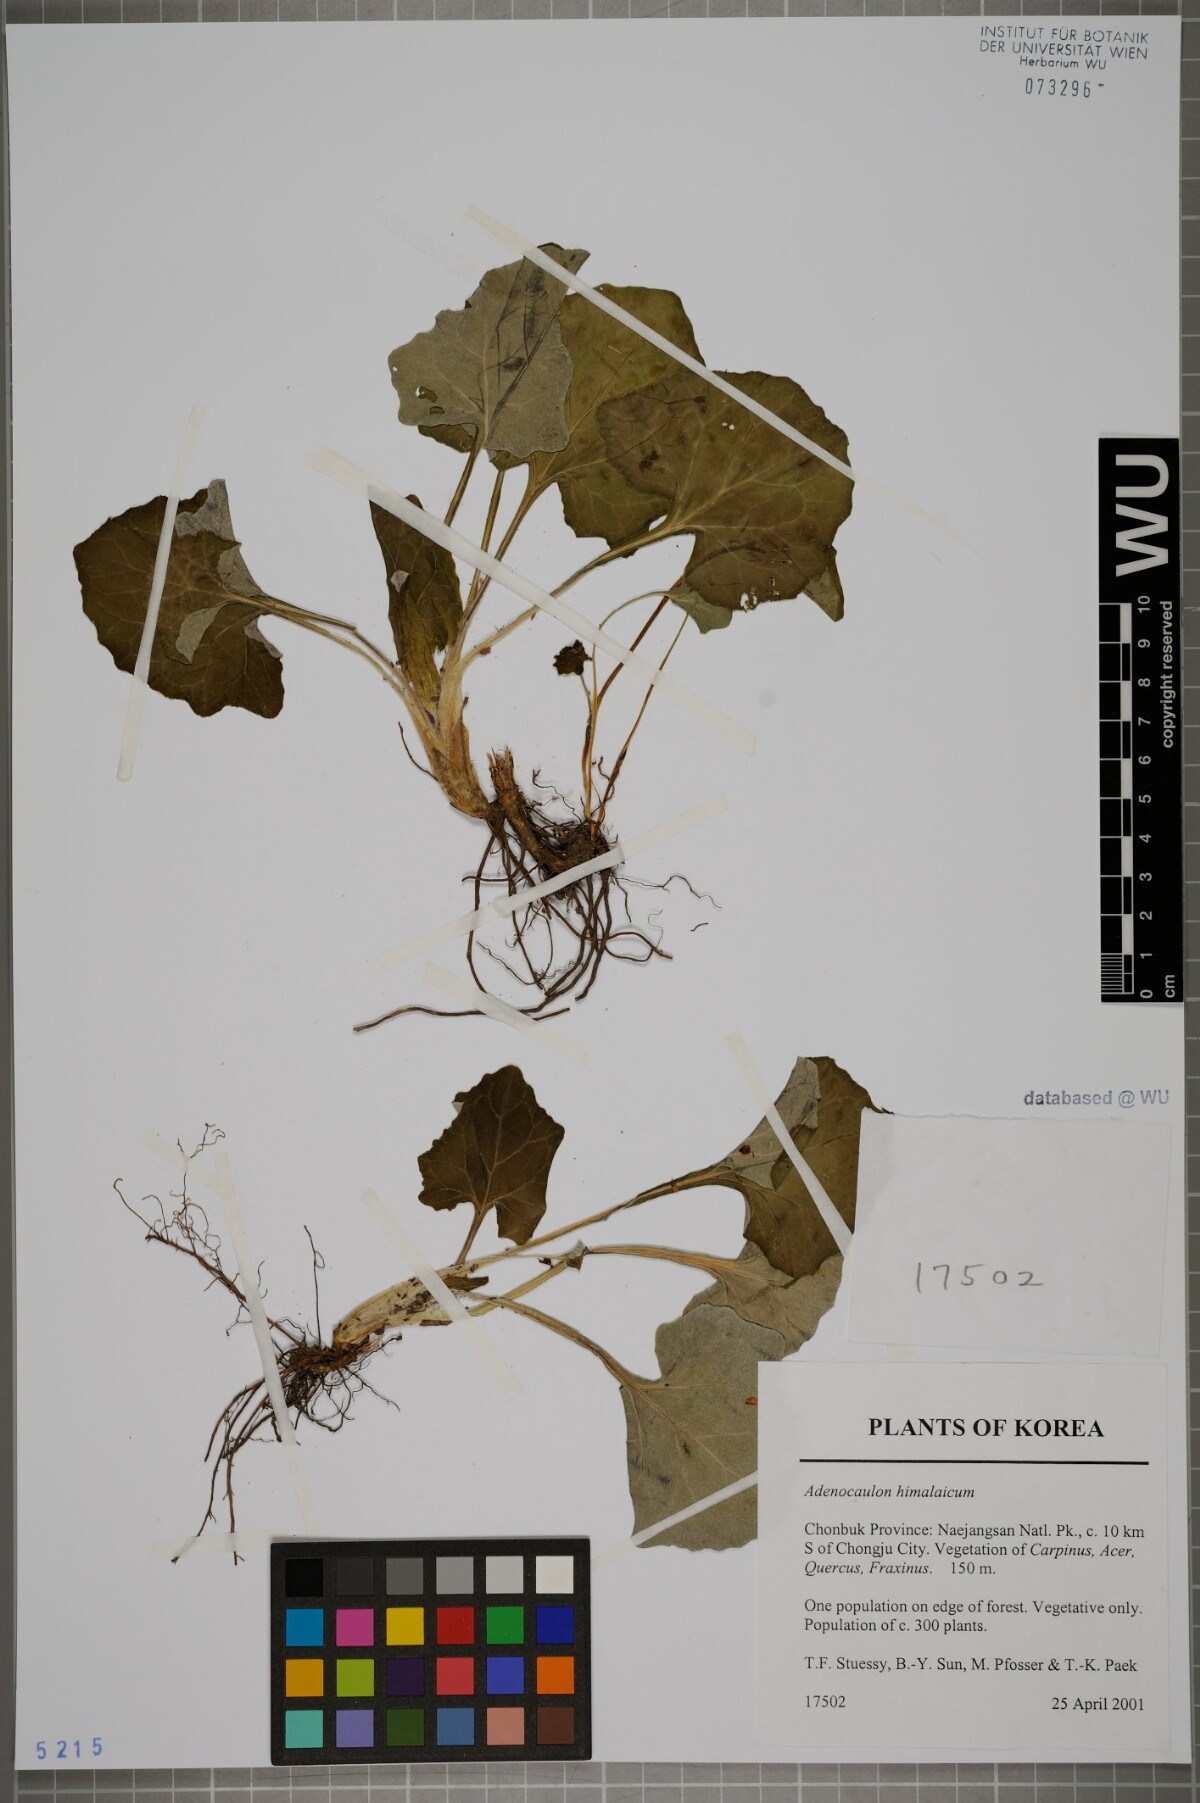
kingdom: Plantae
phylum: Tracheophyta
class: Magnoliopsida
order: Asterales
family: Asteraceae
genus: Adenocaulon
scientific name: Adenocaulon himalaicum
